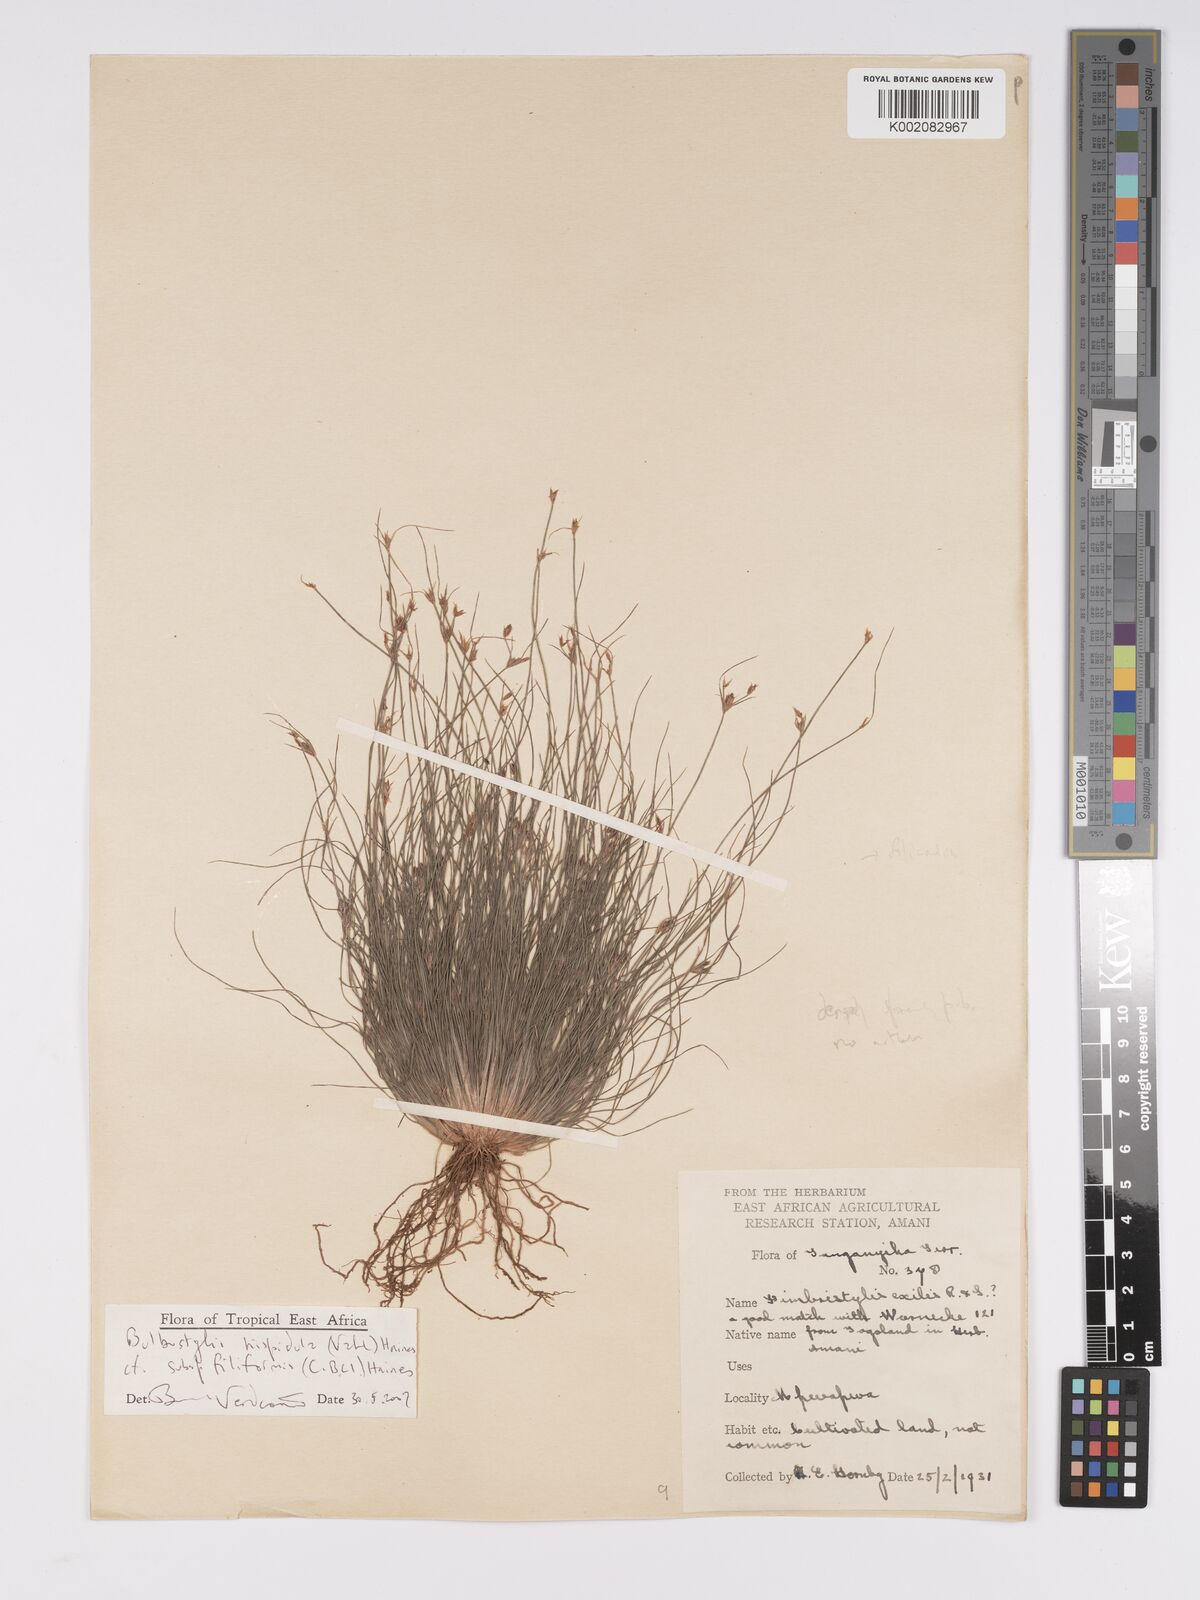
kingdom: Plantae
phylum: Tracheophyta
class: Liliopsida
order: Poales
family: Cyperaceae
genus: Bulbostylis
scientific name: Bulbostylis hispidula
